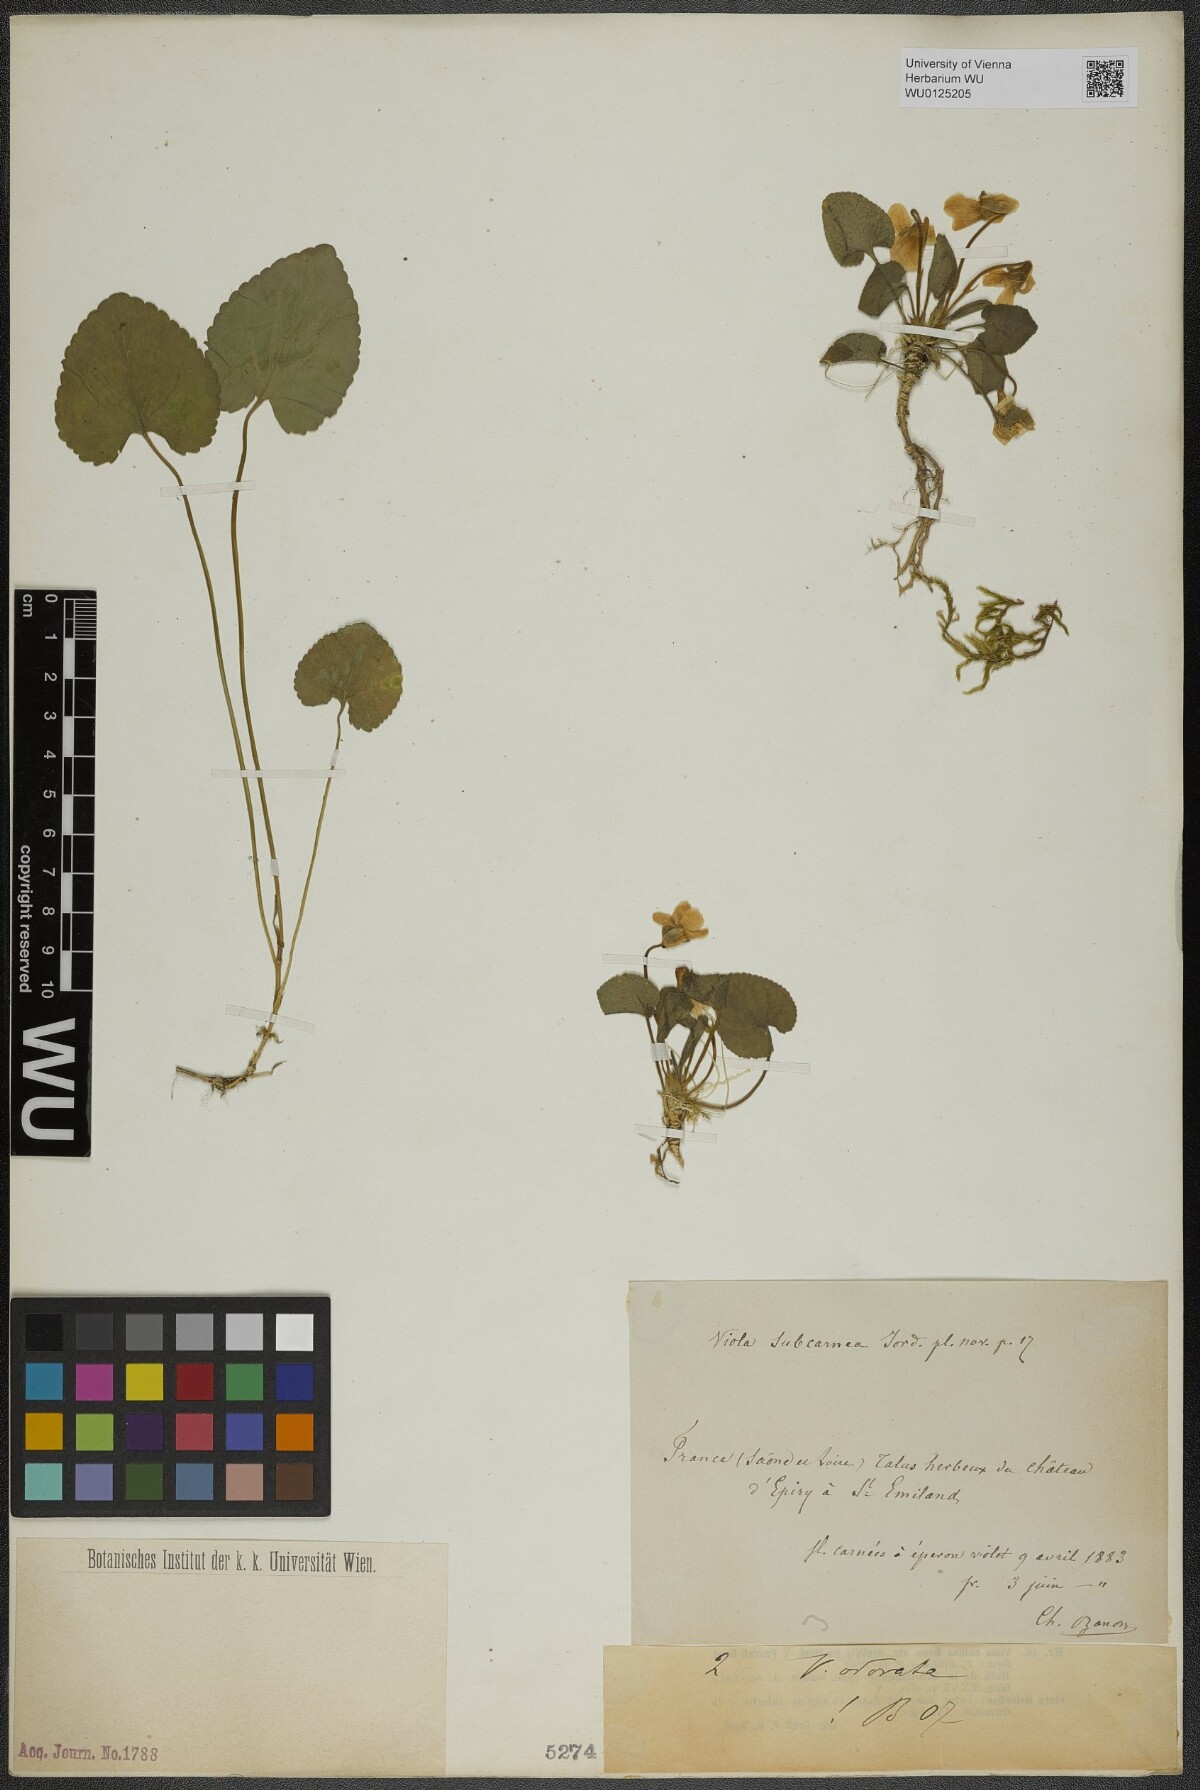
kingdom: Plantae
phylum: Tracheophyta
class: Magnoliopsida
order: Malpighiales
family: Violaceae
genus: Viola
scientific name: Viola odorata
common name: Sweet violet
